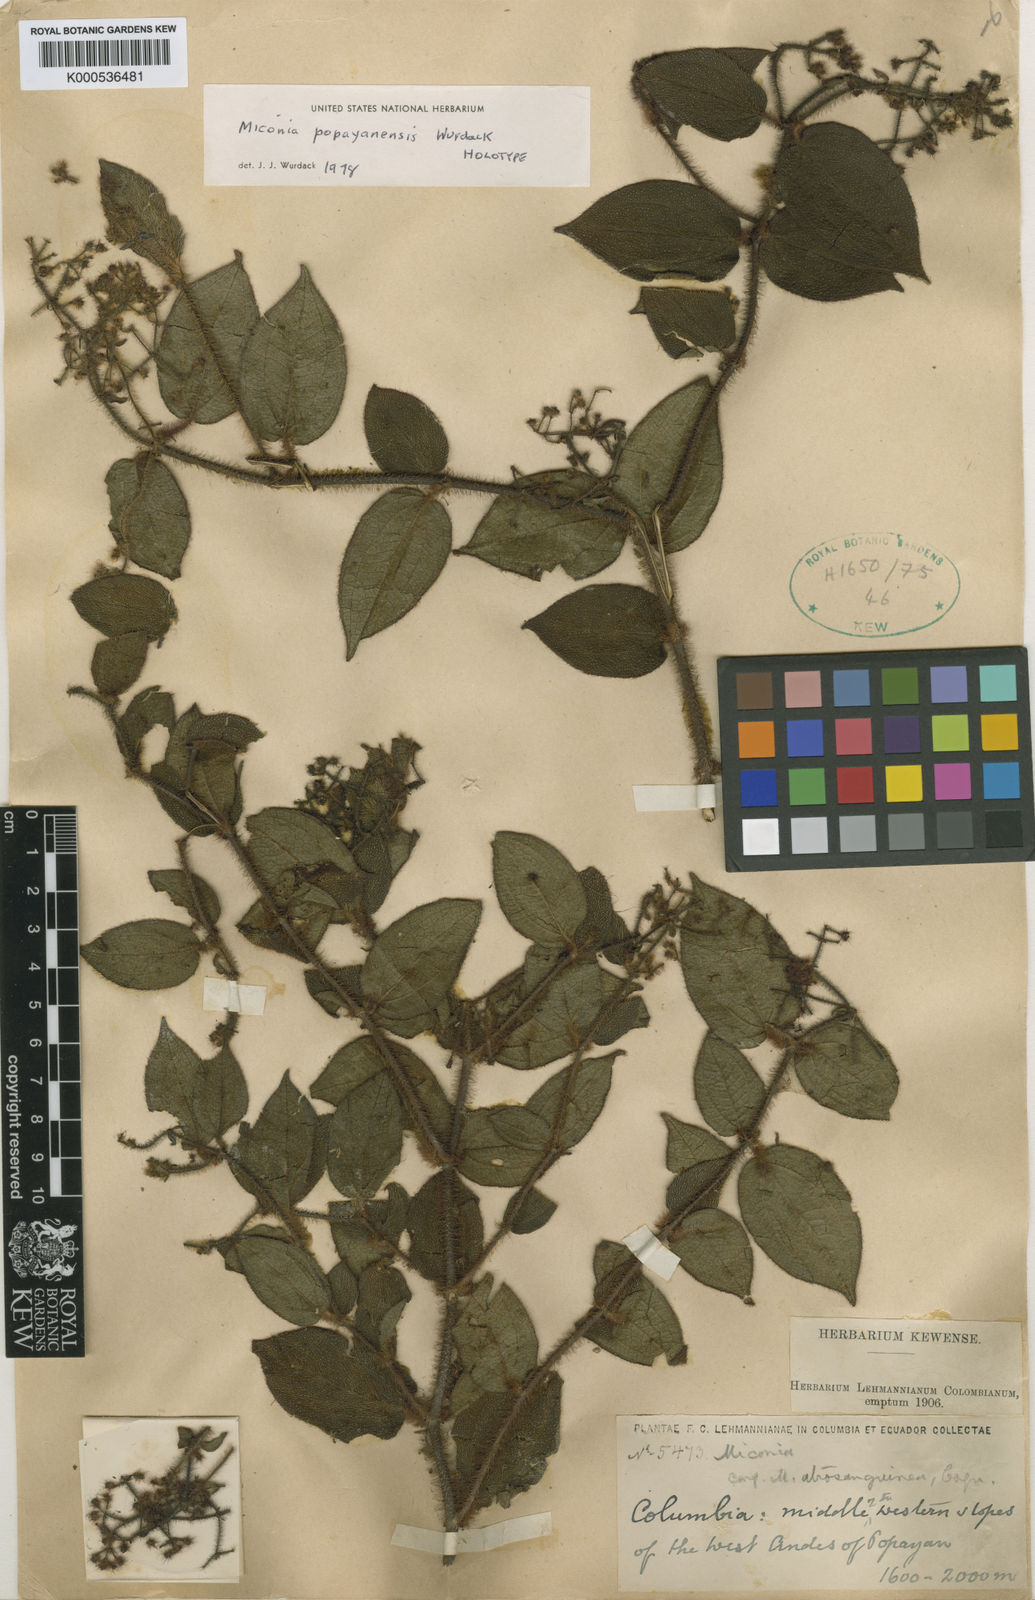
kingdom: Plantae
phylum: Tracheophyta
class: Magnoliopsida
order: Myrtales
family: Melastomataceae
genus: Miconia
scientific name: Miconia popayanensis
